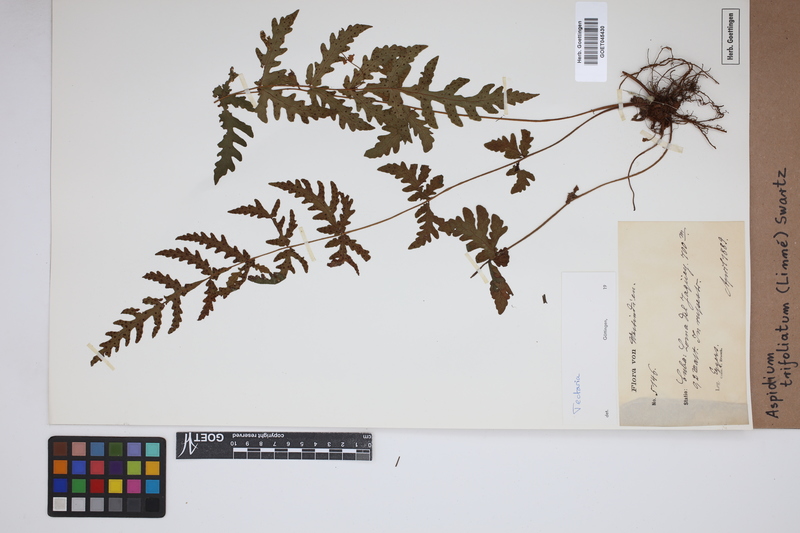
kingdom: Plantae
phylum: Tracheophyta
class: Polypodiopsida
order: Polypodiales
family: Tectariaceae
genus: Tectaria
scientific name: Tectaria trifoliata
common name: Threeleaf halberd fern
